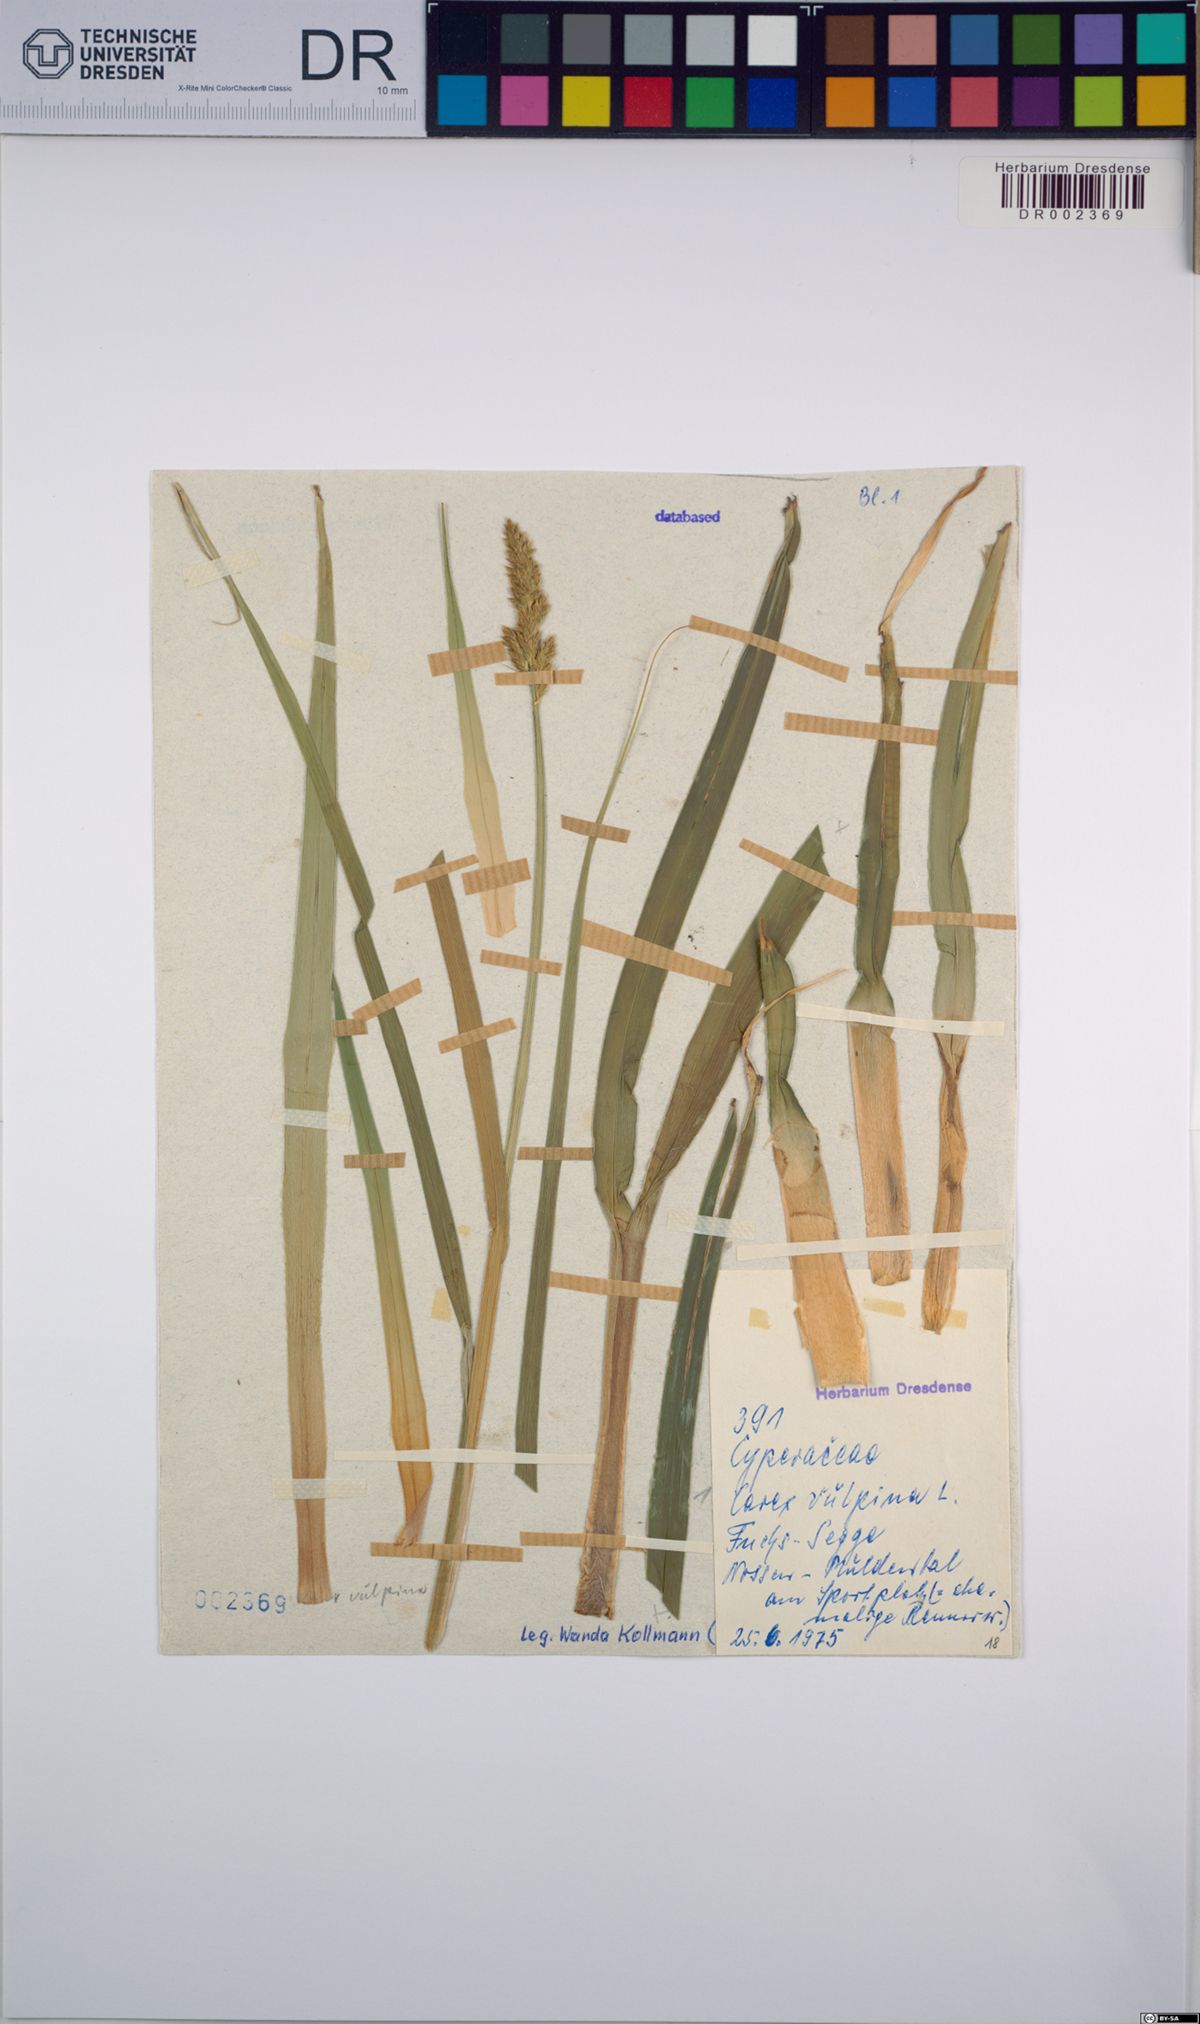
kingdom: Plantae
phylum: Tracheophyta
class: Liliopsida
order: Poales
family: Cyperaceae
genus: Carex
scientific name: Carex vulpina
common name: True fox-sedge
